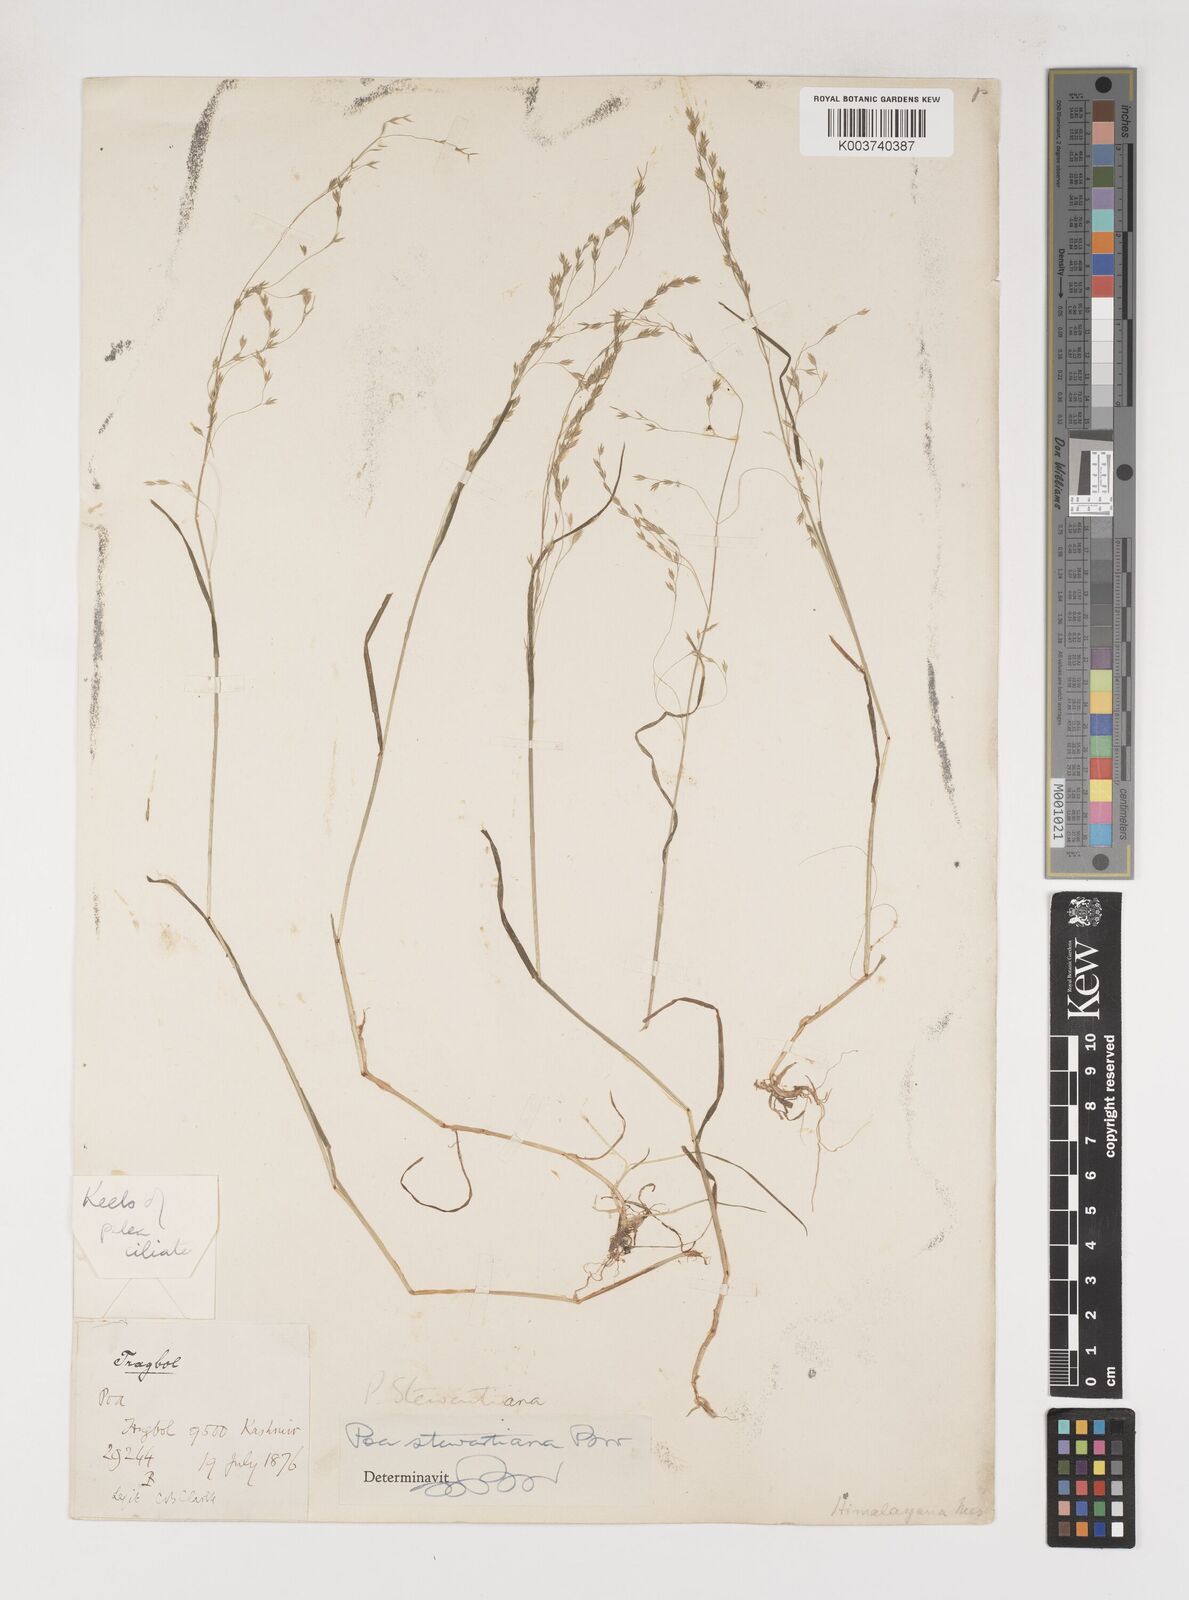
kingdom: Plantae
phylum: Tracheophyta
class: Liliopsida
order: Poales
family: Poaceae
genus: Poa
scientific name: Poa stewartiana
